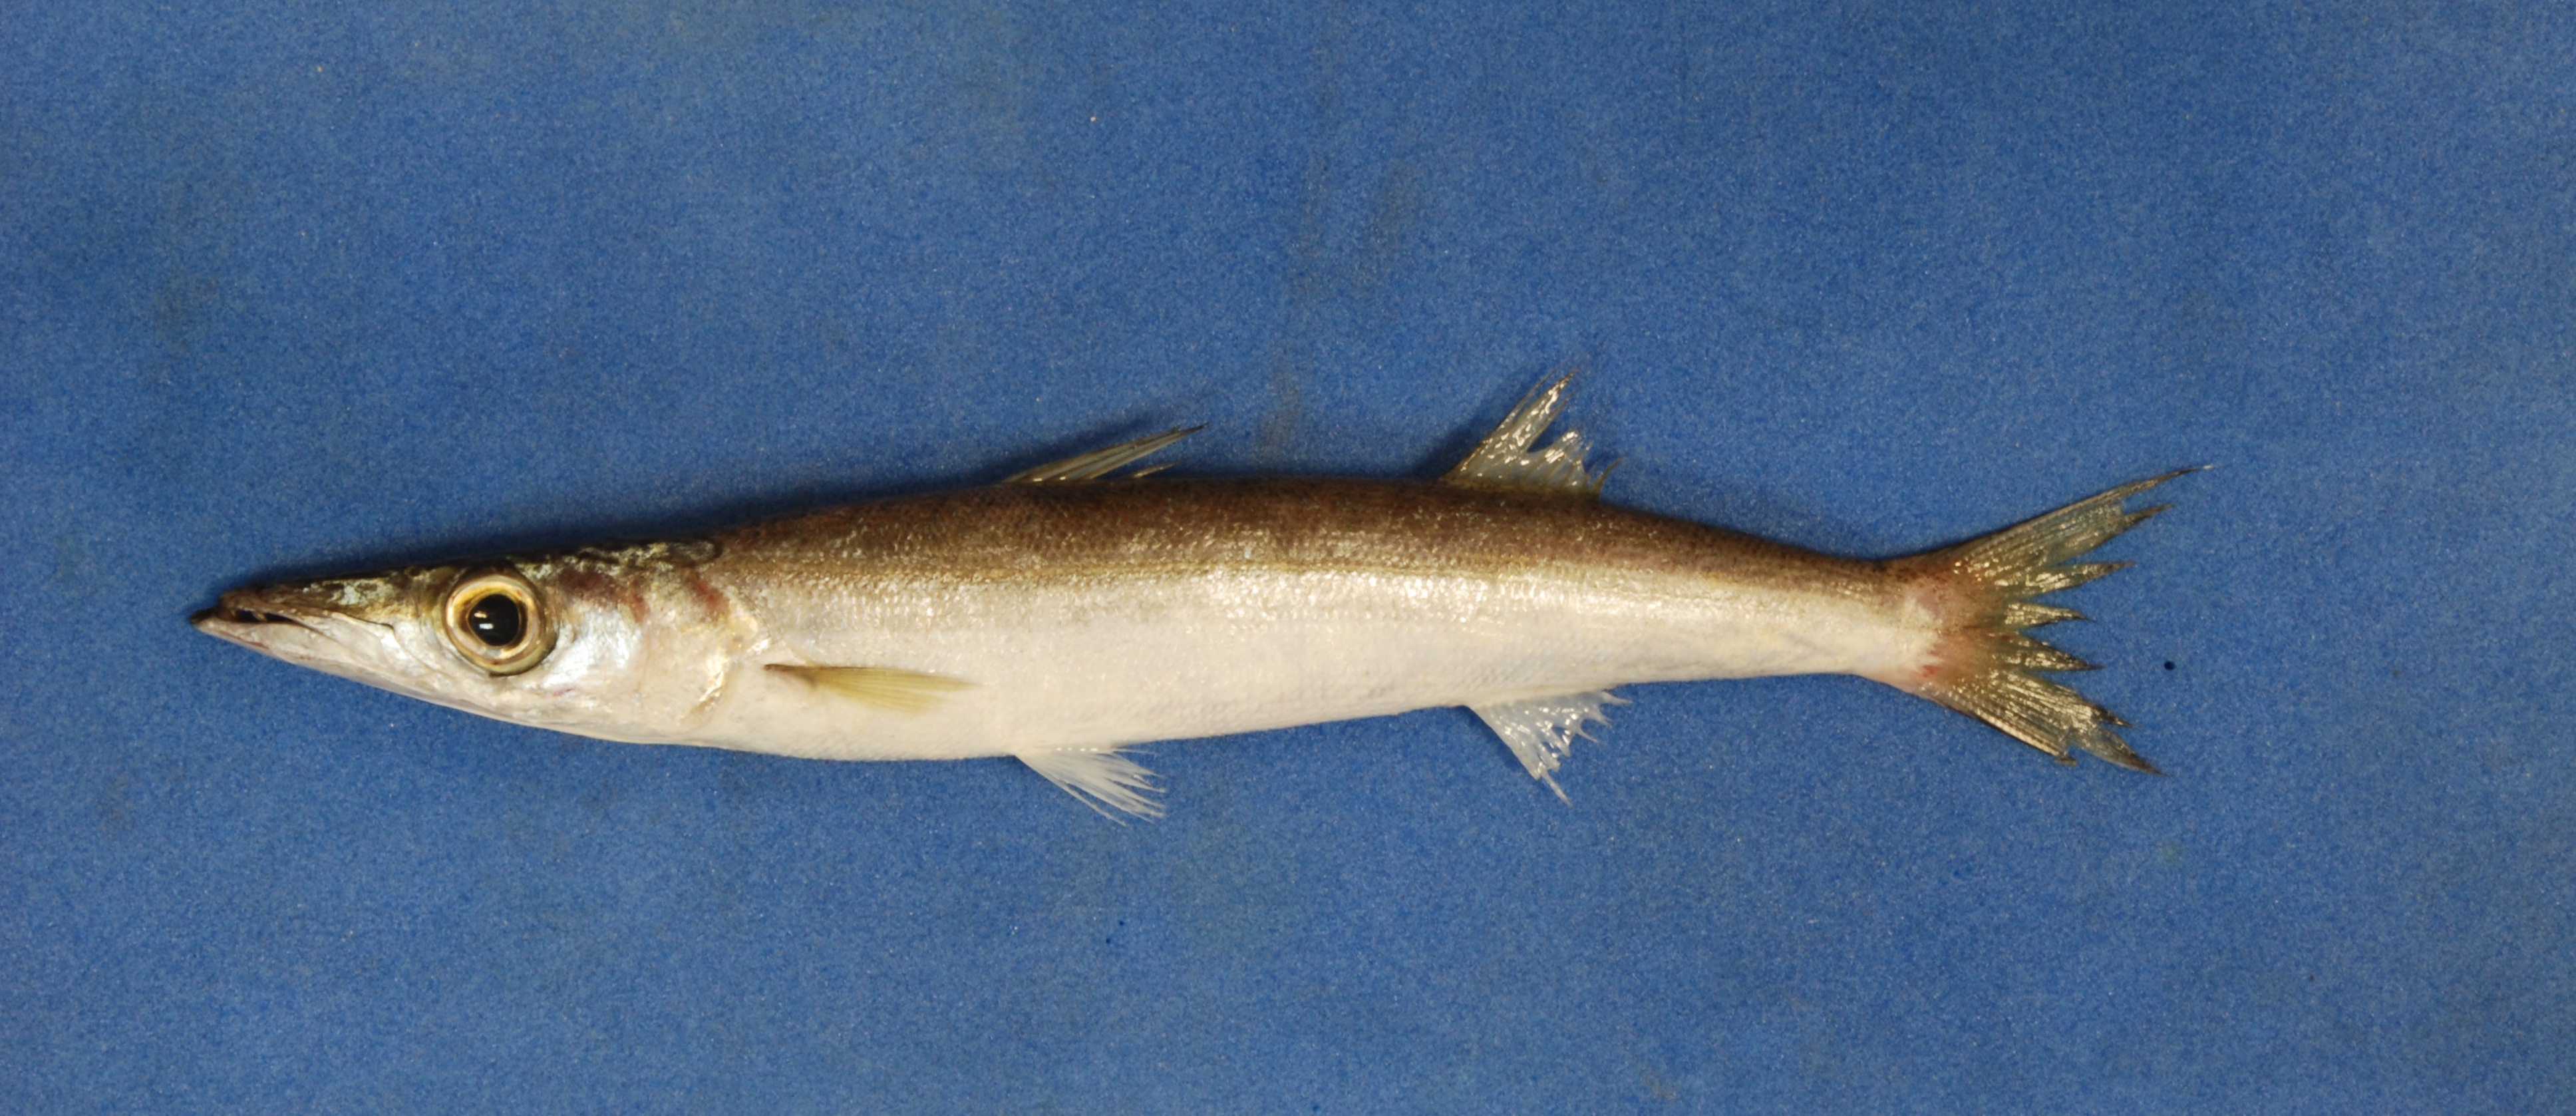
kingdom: Animalia
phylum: Chordata
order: Perciformes
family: Sphyraenidae
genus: Sphyraena
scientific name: Sphyraena acutipinnis
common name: Sharpfin barracuda
